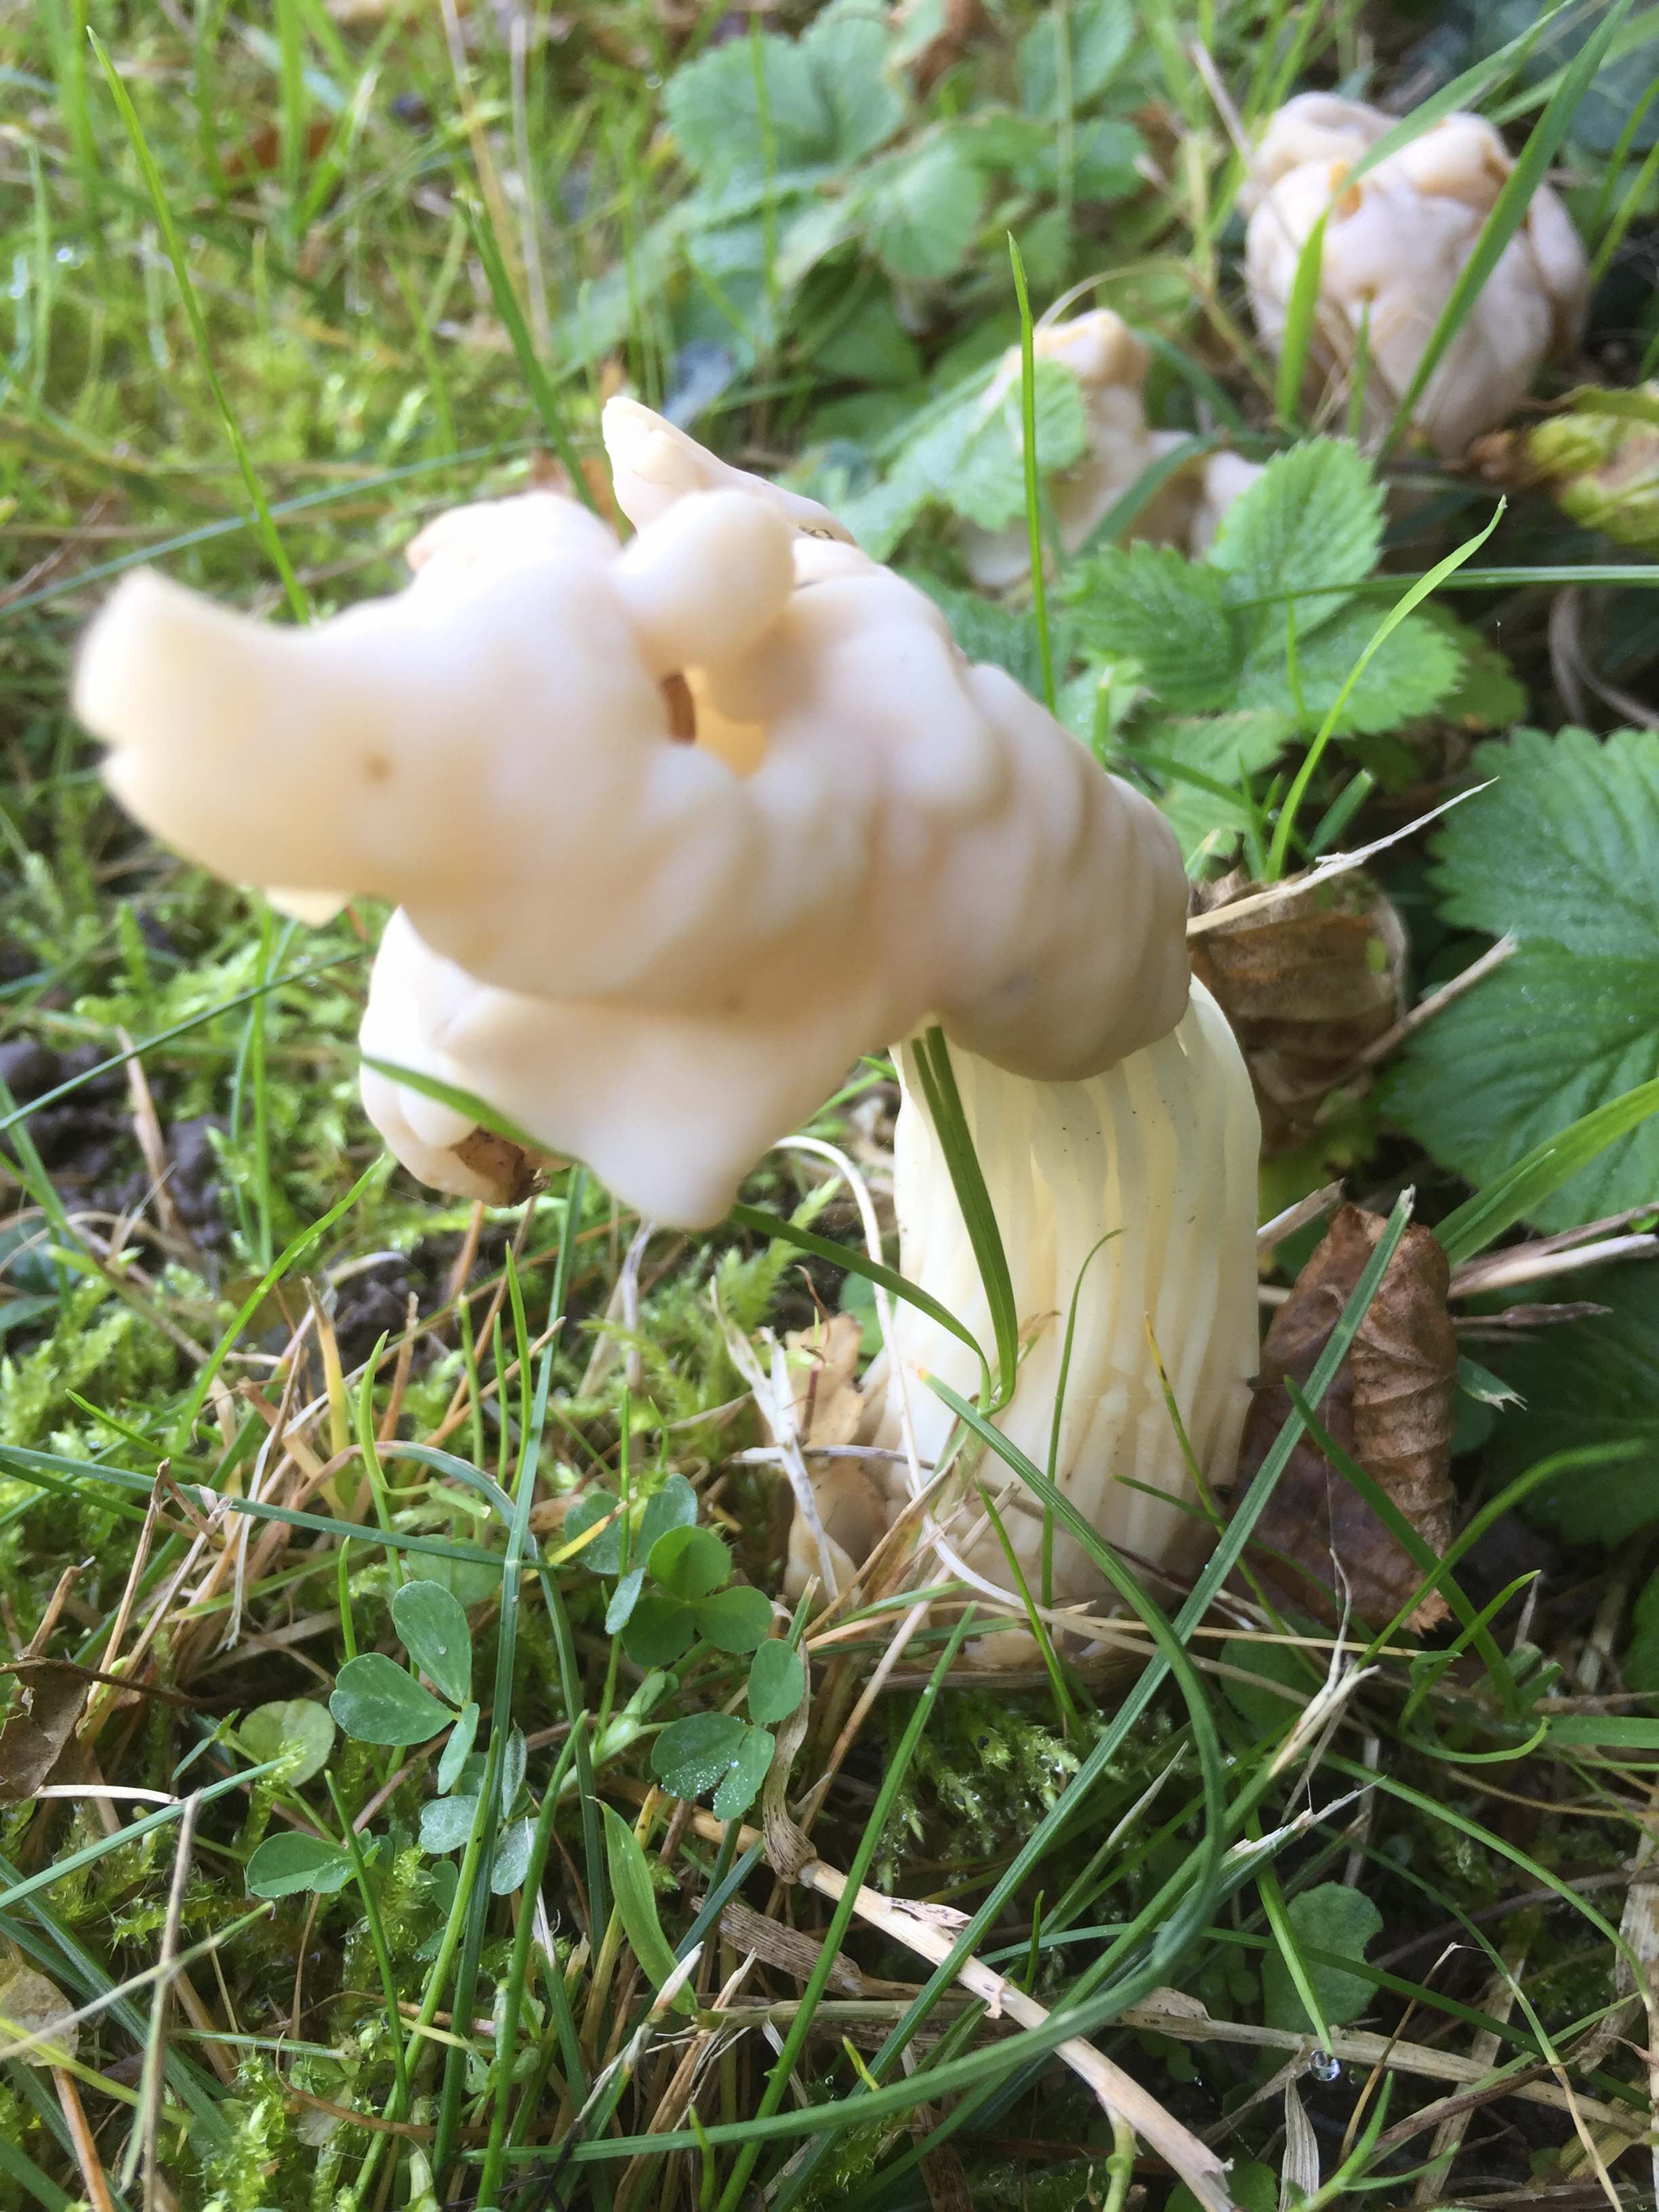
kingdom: Fungi
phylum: Ascomycota
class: Pezizomycetes
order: Pezizales
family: Helvellaceae
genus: Helvella
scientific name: Helvella crispa
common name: kruset foldhat
